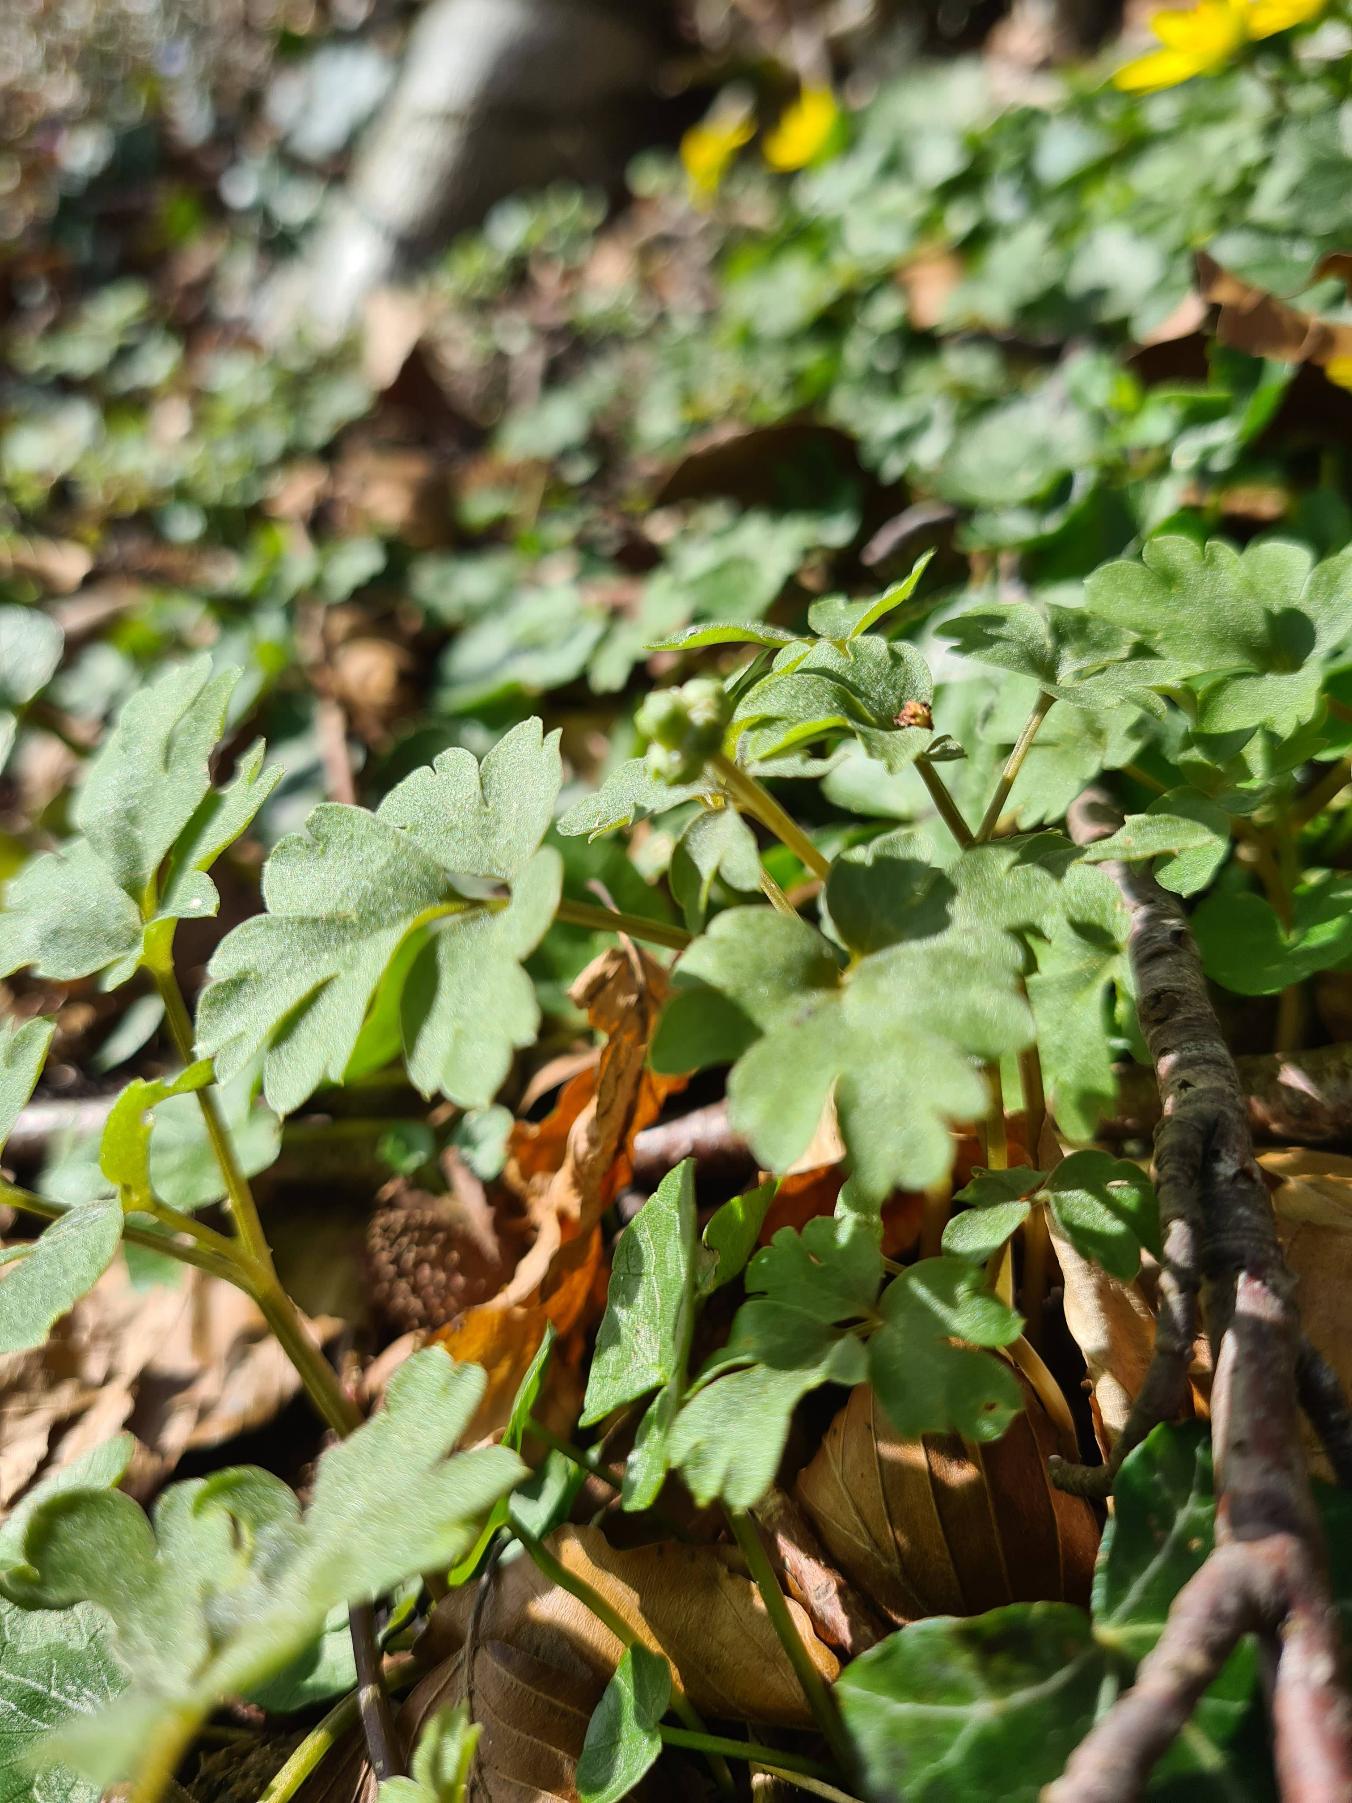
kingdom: Plantae
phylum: Tracheophyta
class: Magnoliopsida
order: Dipsacales
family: Viburnaceae
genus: Adoxa
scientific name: Adoxa moschatellina
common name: Desmerurt
